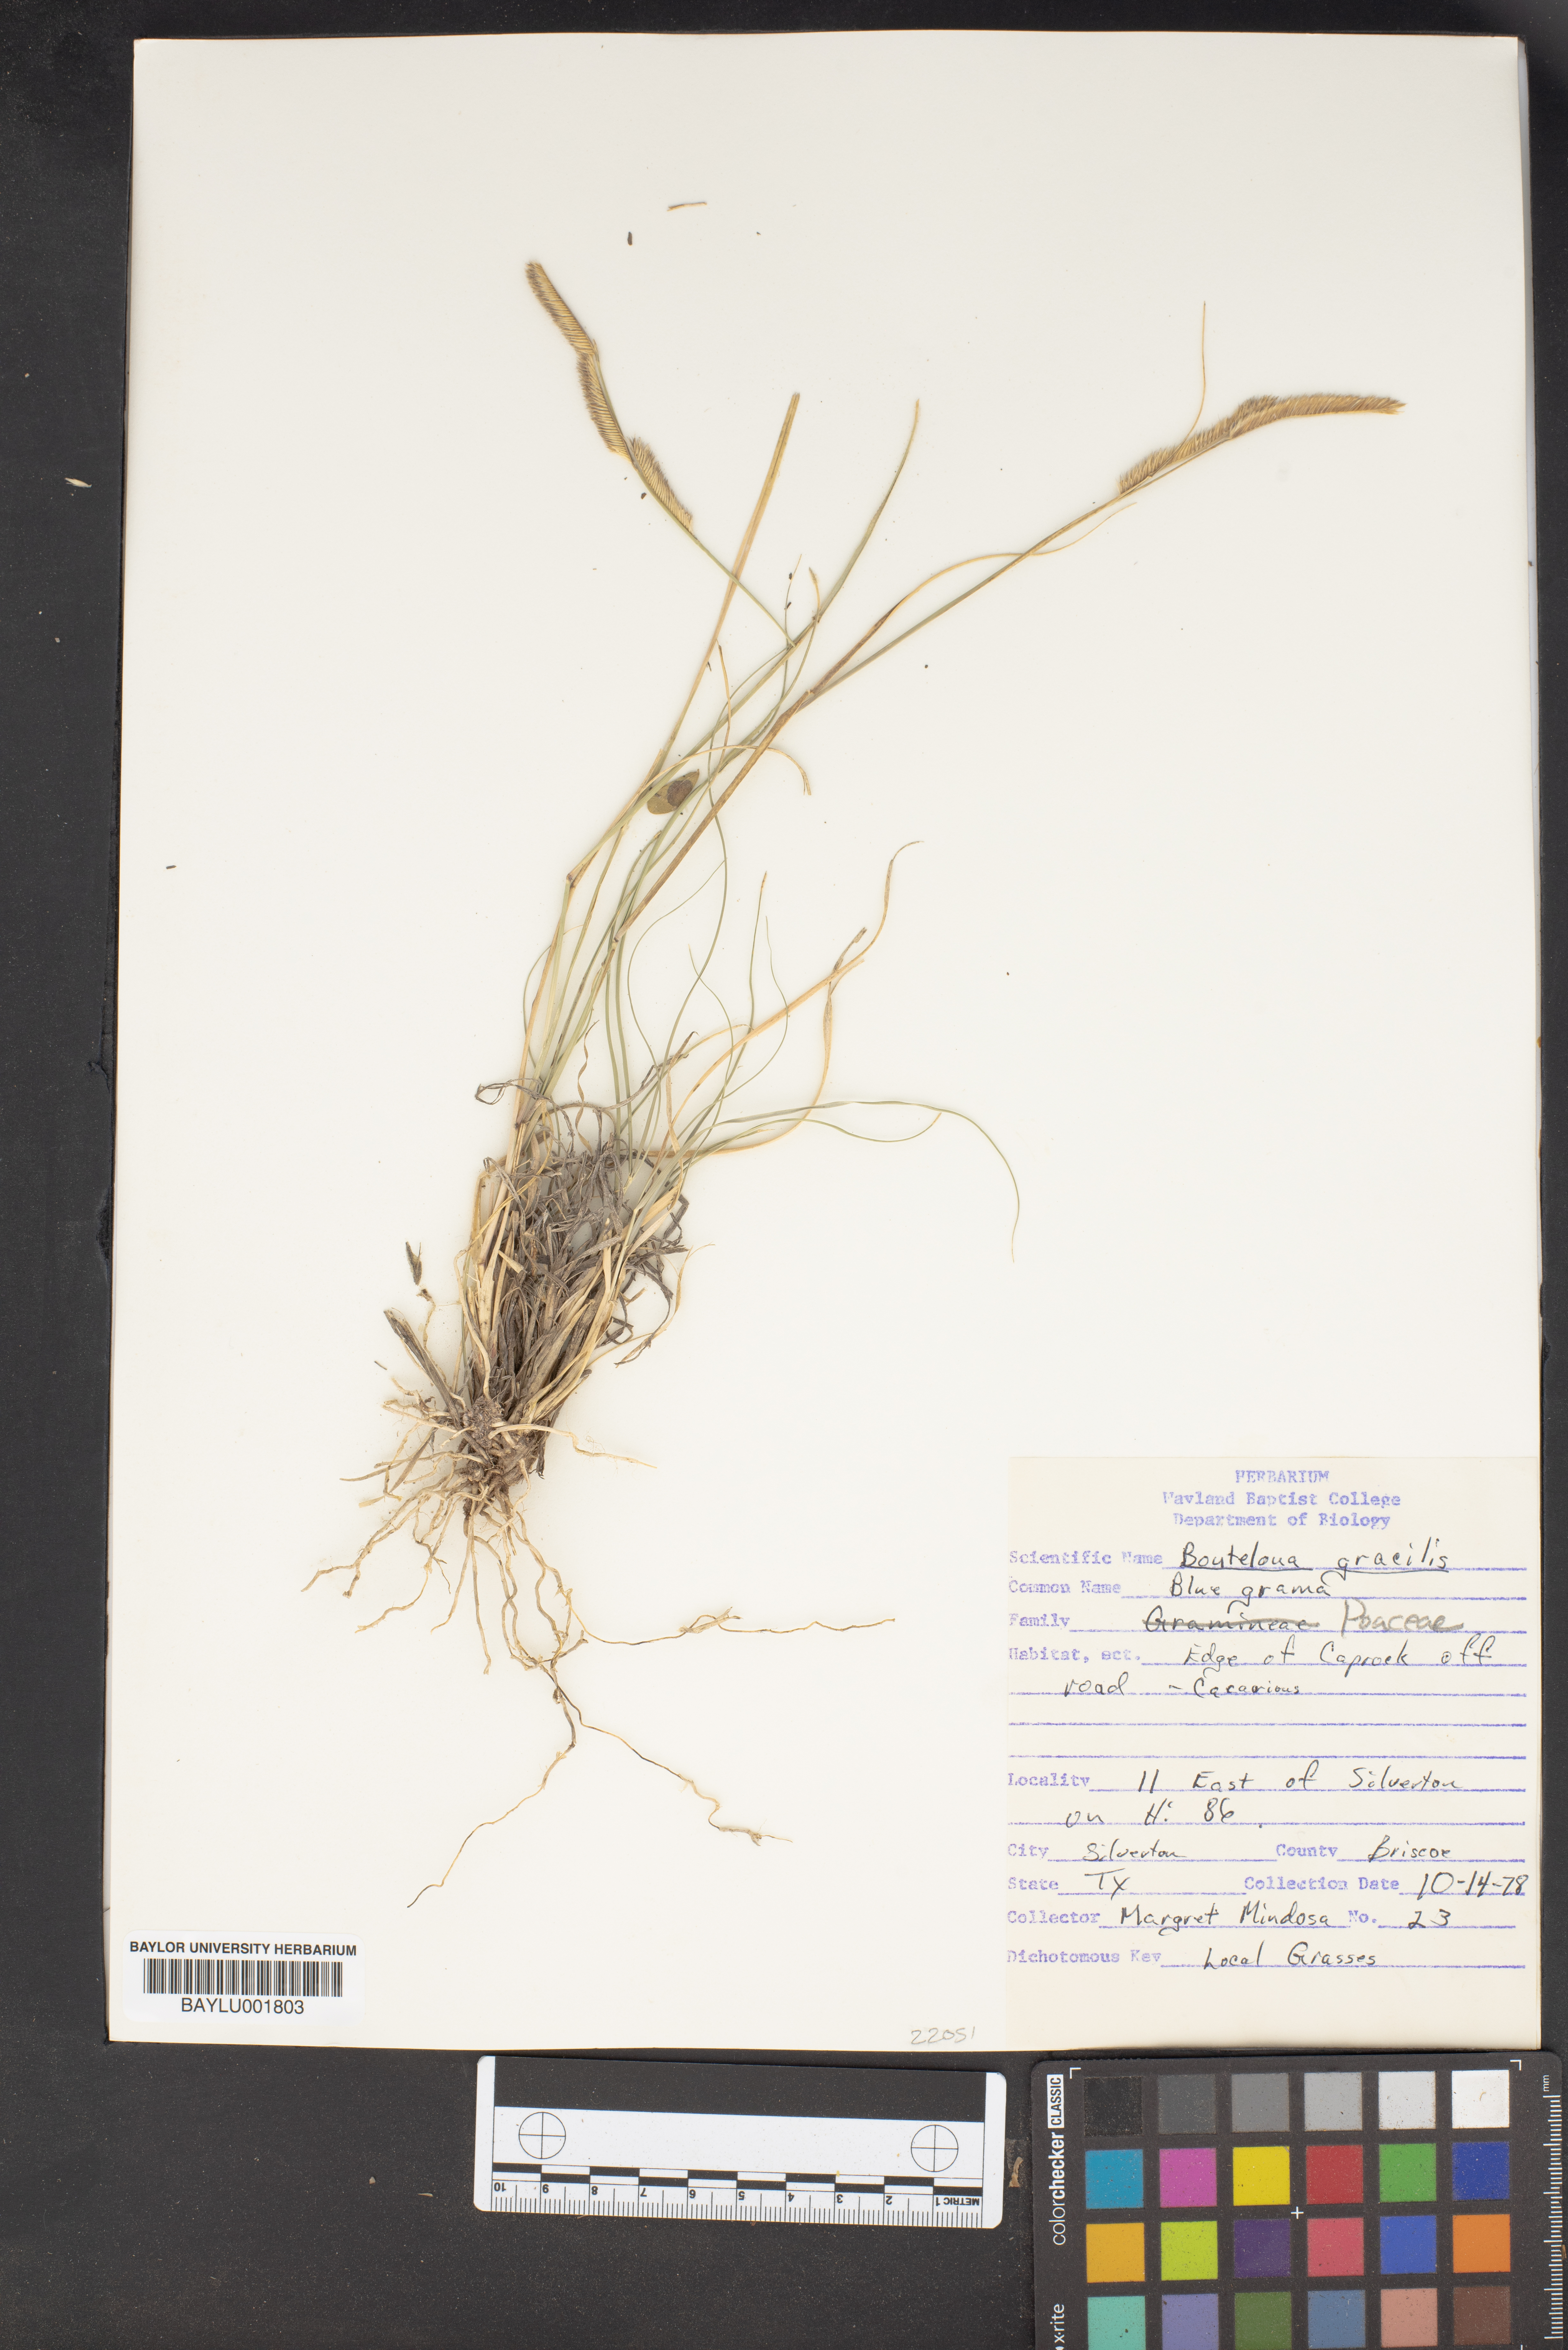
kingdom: Plantae
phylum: Tracheophyta
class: Liliopsida
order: Poales
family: Poaceae
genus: Bouteloua
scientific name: Bouteloua gracilis
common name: Blue grama
